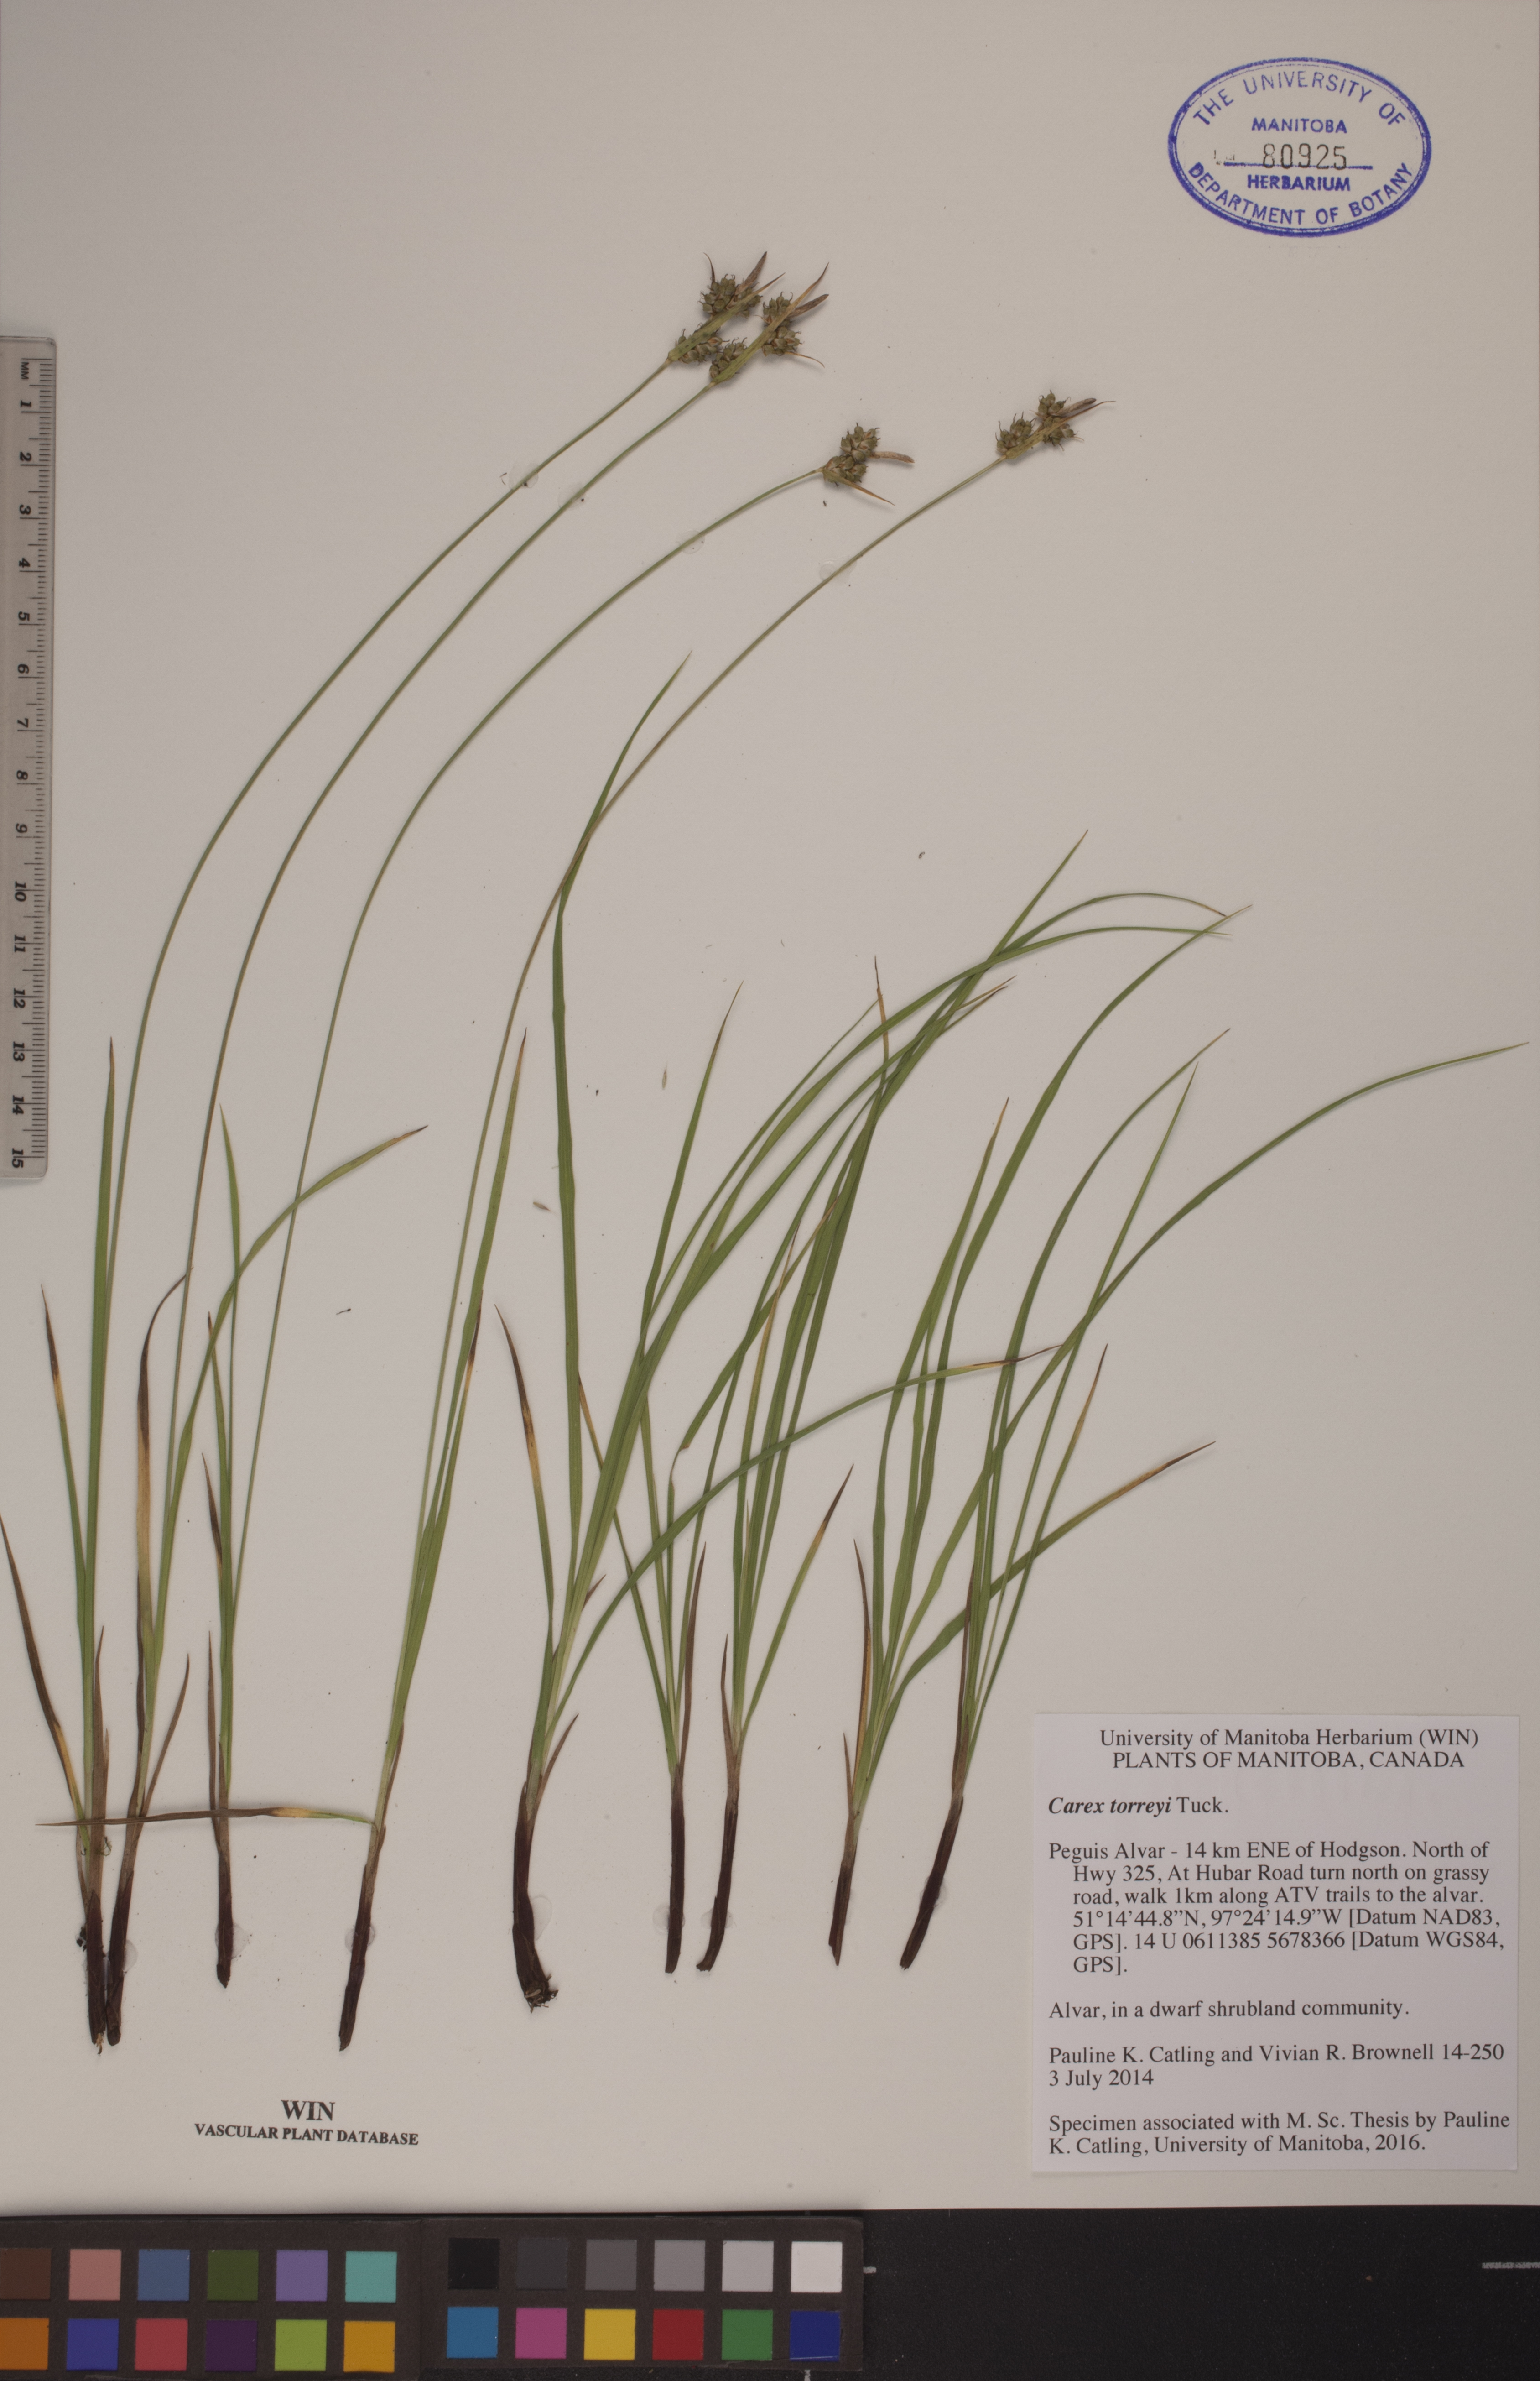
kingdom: Plantae
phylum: Tracheophyta
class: Liliopsida
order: Poales
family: Cyperaceae
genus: Carex
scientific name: Carex torreyi
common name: Torrey's sedge
